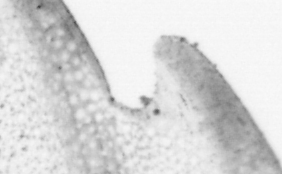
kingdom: Animalia
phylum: Chordata
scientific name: Chordata
